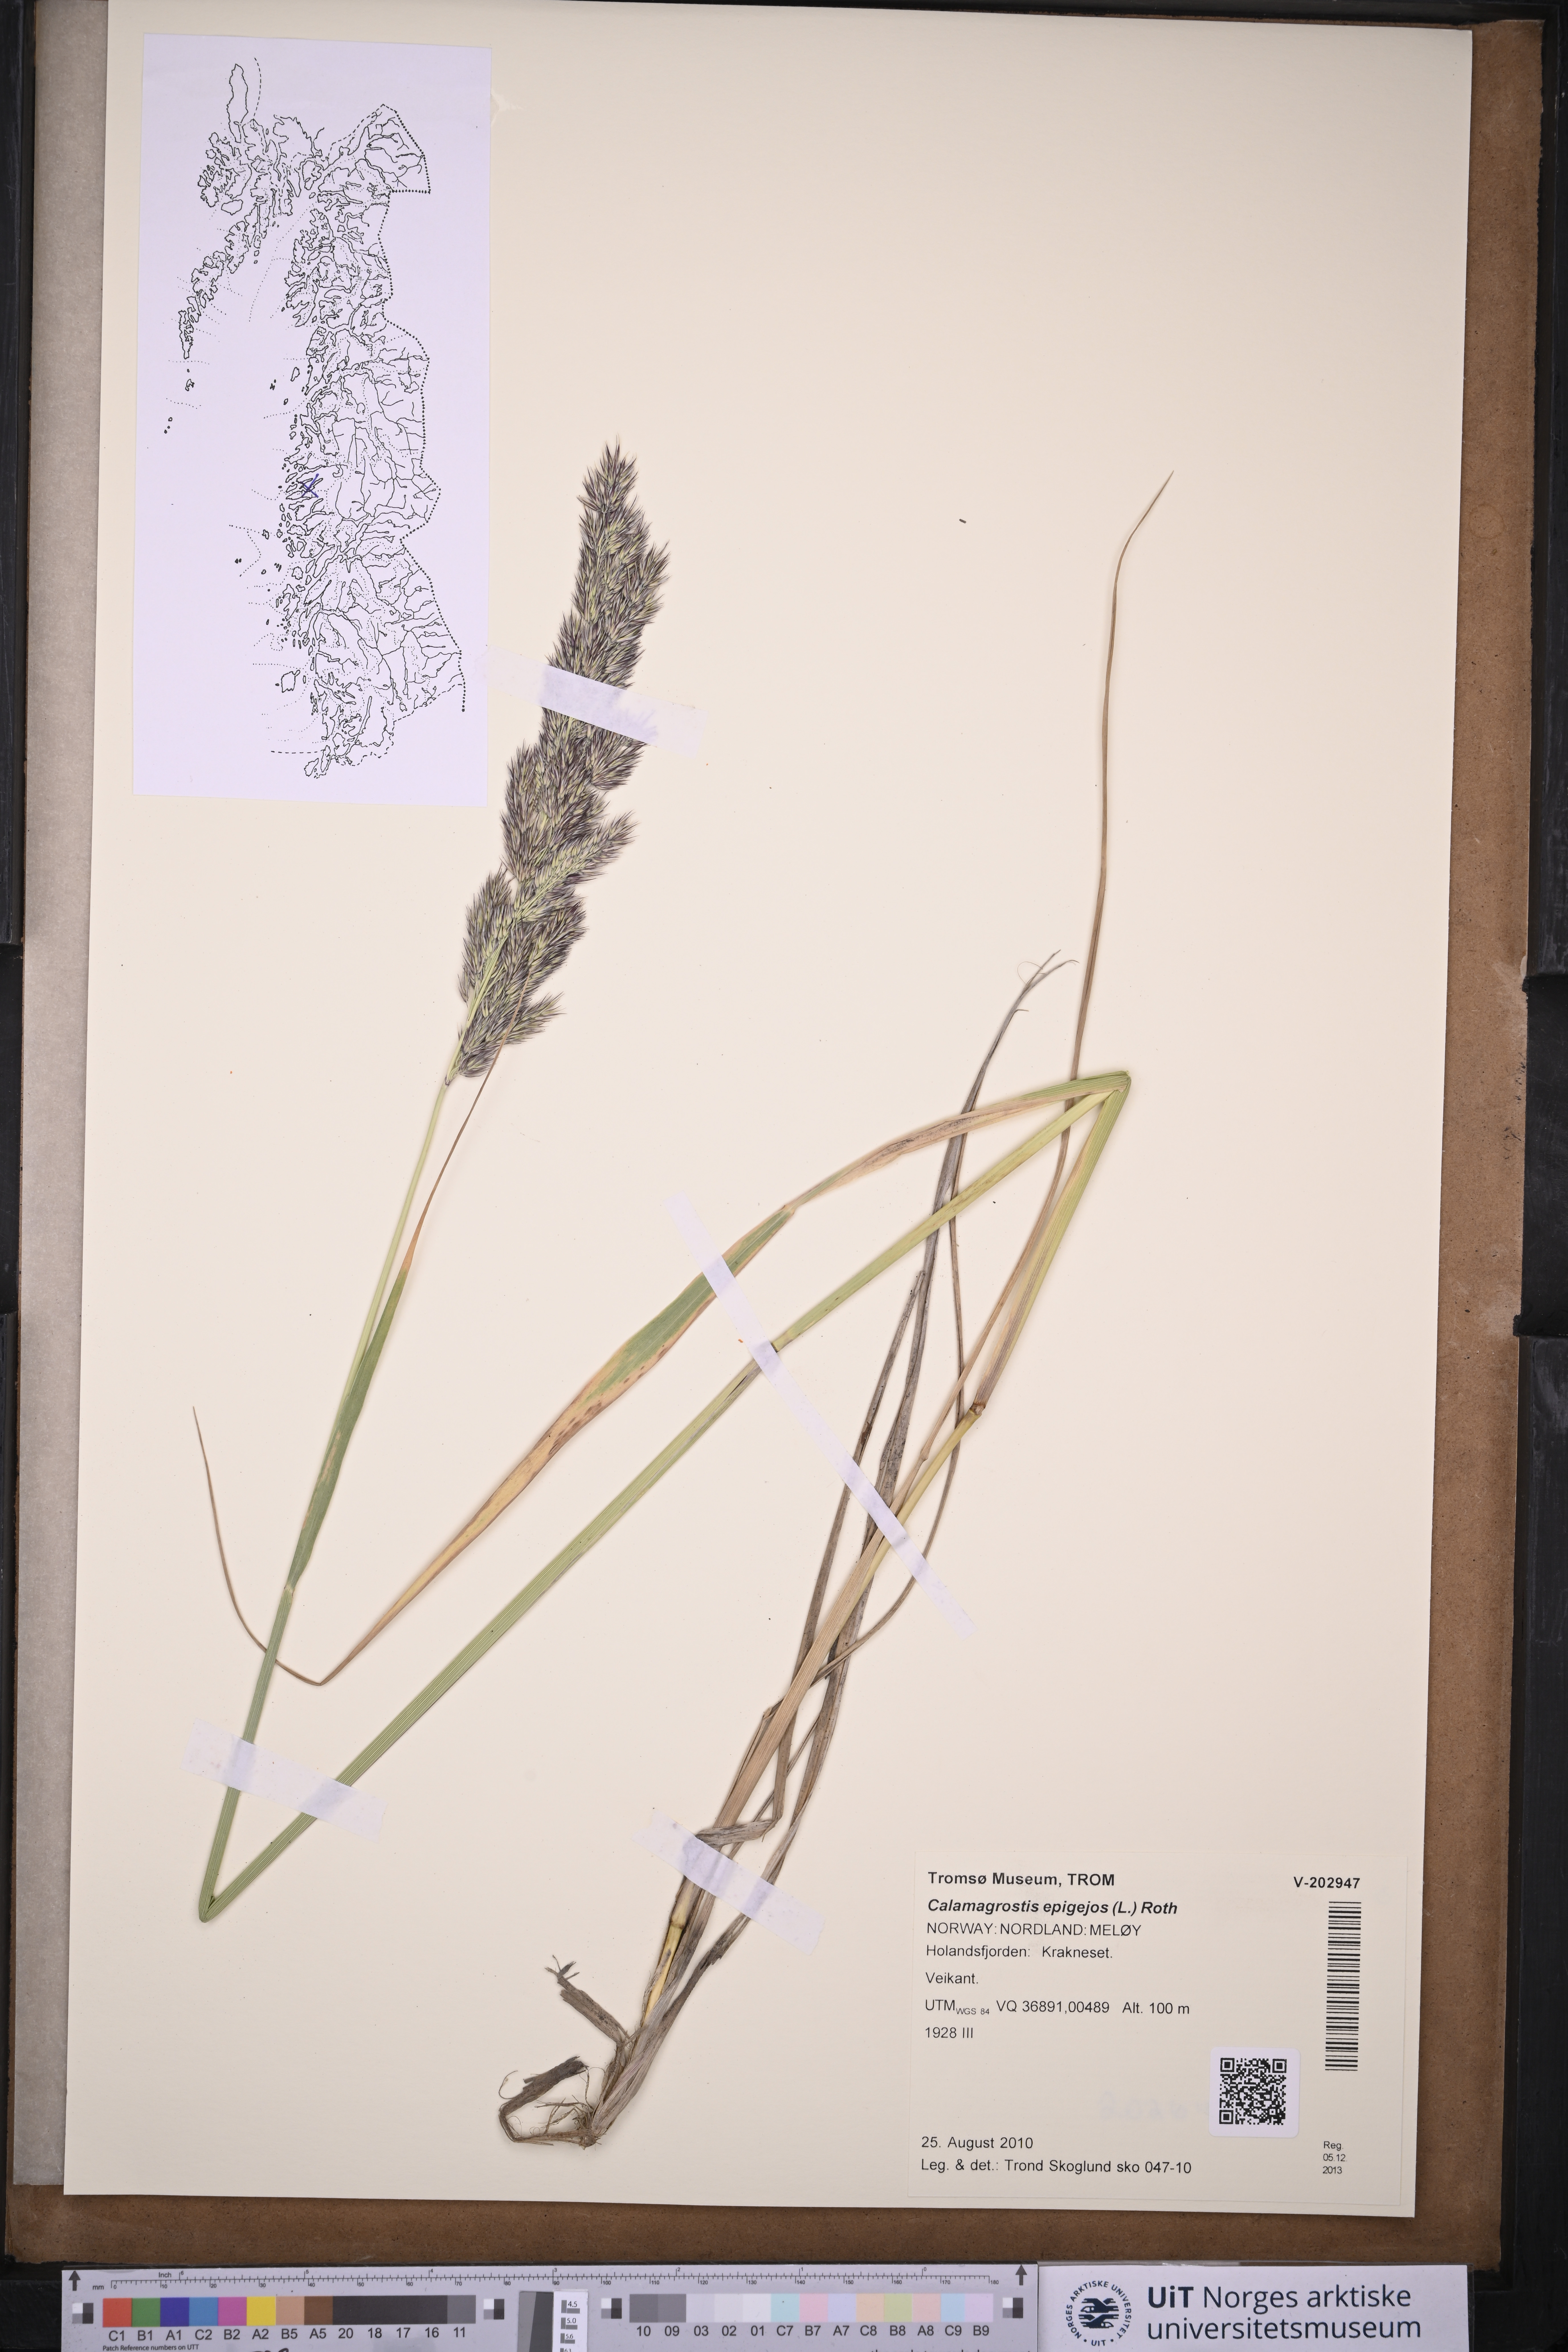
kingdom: Plantae
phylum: Tracheophyta
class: Liliopsida
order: Poales
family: Poaceae
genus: Calamagrostis
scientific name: Calamagrostis epigejos
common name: Wood small-reed
